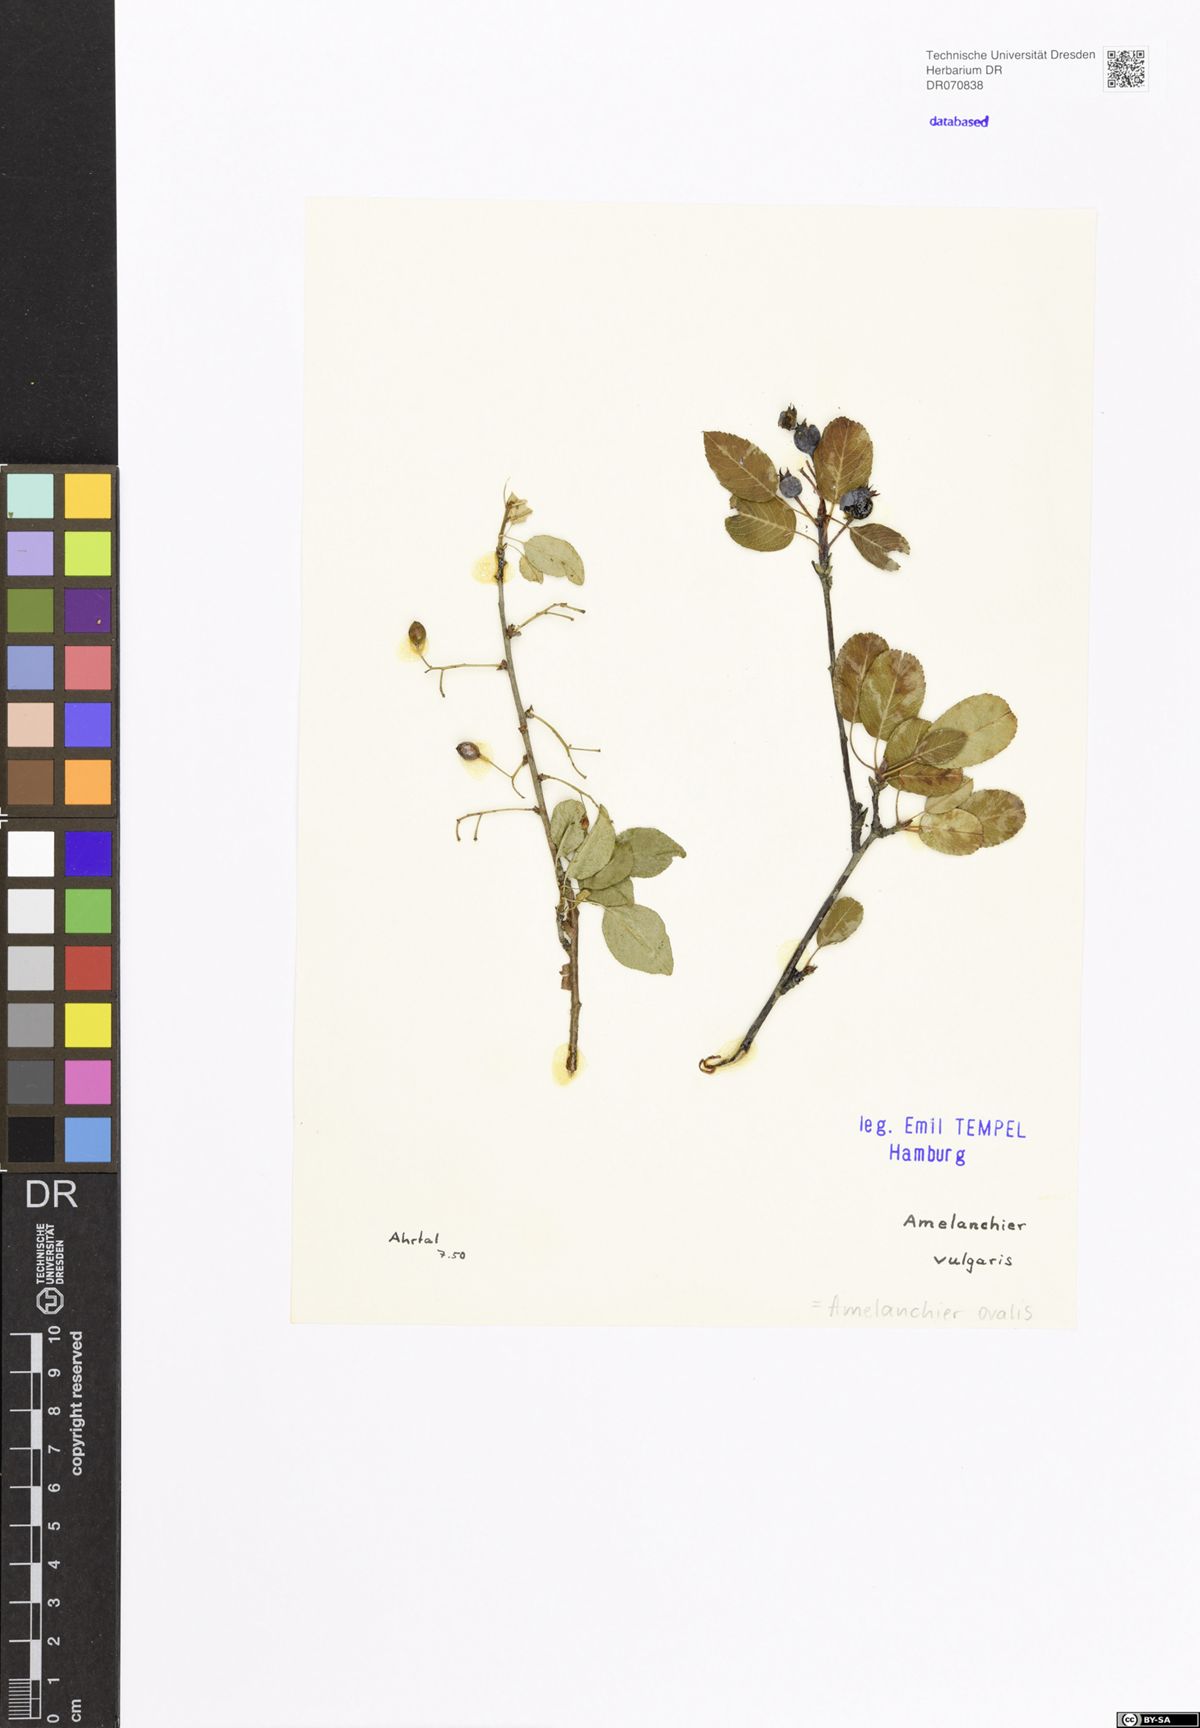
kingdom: Plantae
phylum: Tracheophyta
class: Magnoliopsida
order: Rosales
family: Rosaceae
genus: Amelanchier
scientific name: Amelanchier ovalis
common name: Serviceberry
